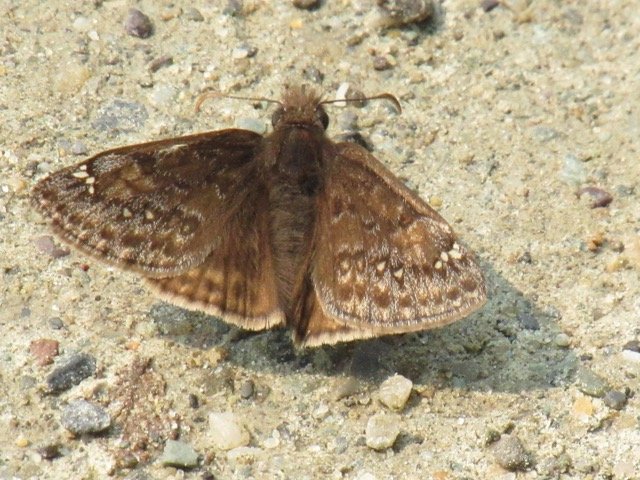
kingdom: Animalia
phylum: Arthropoda
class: Insecta
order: Lepidoptera
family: Hesperiidae
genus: Gesta
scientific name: Gesta
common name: Juvenal's Duskywing
